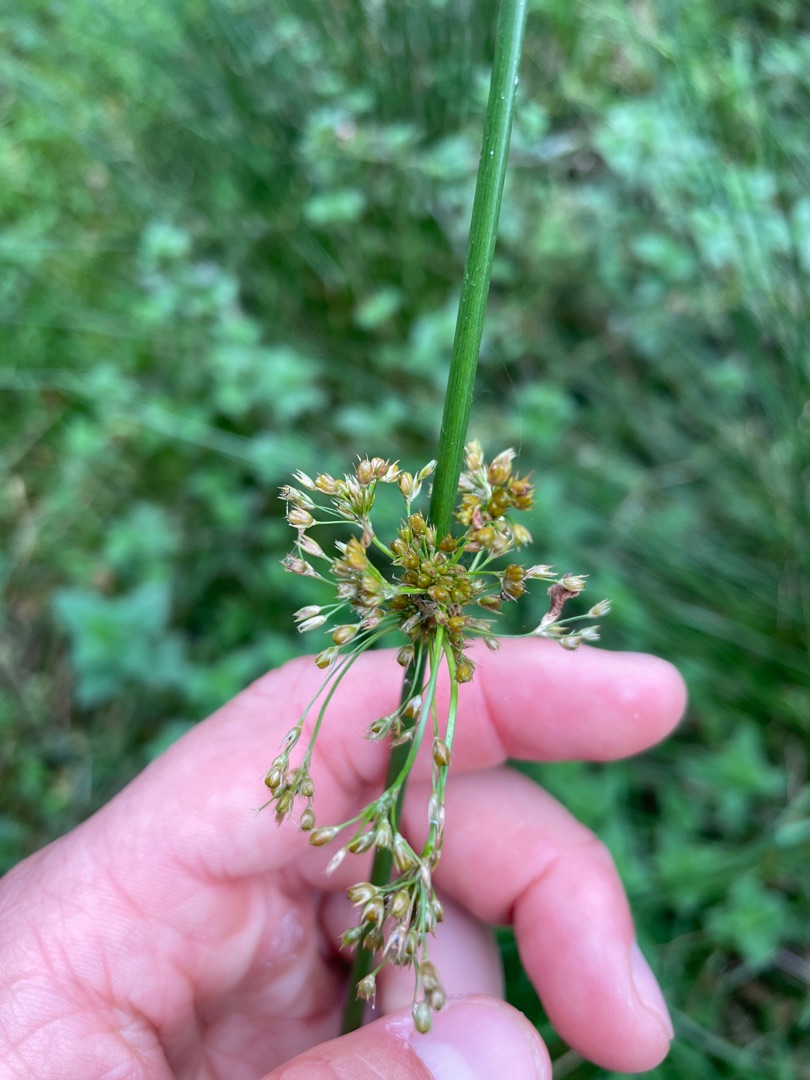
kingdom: Plantae
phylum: Tracheophyta
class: Liliopsida
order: Poales
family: Juncaceae
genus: Juncus
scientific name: Juncus effusus
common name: Lyse-siv
